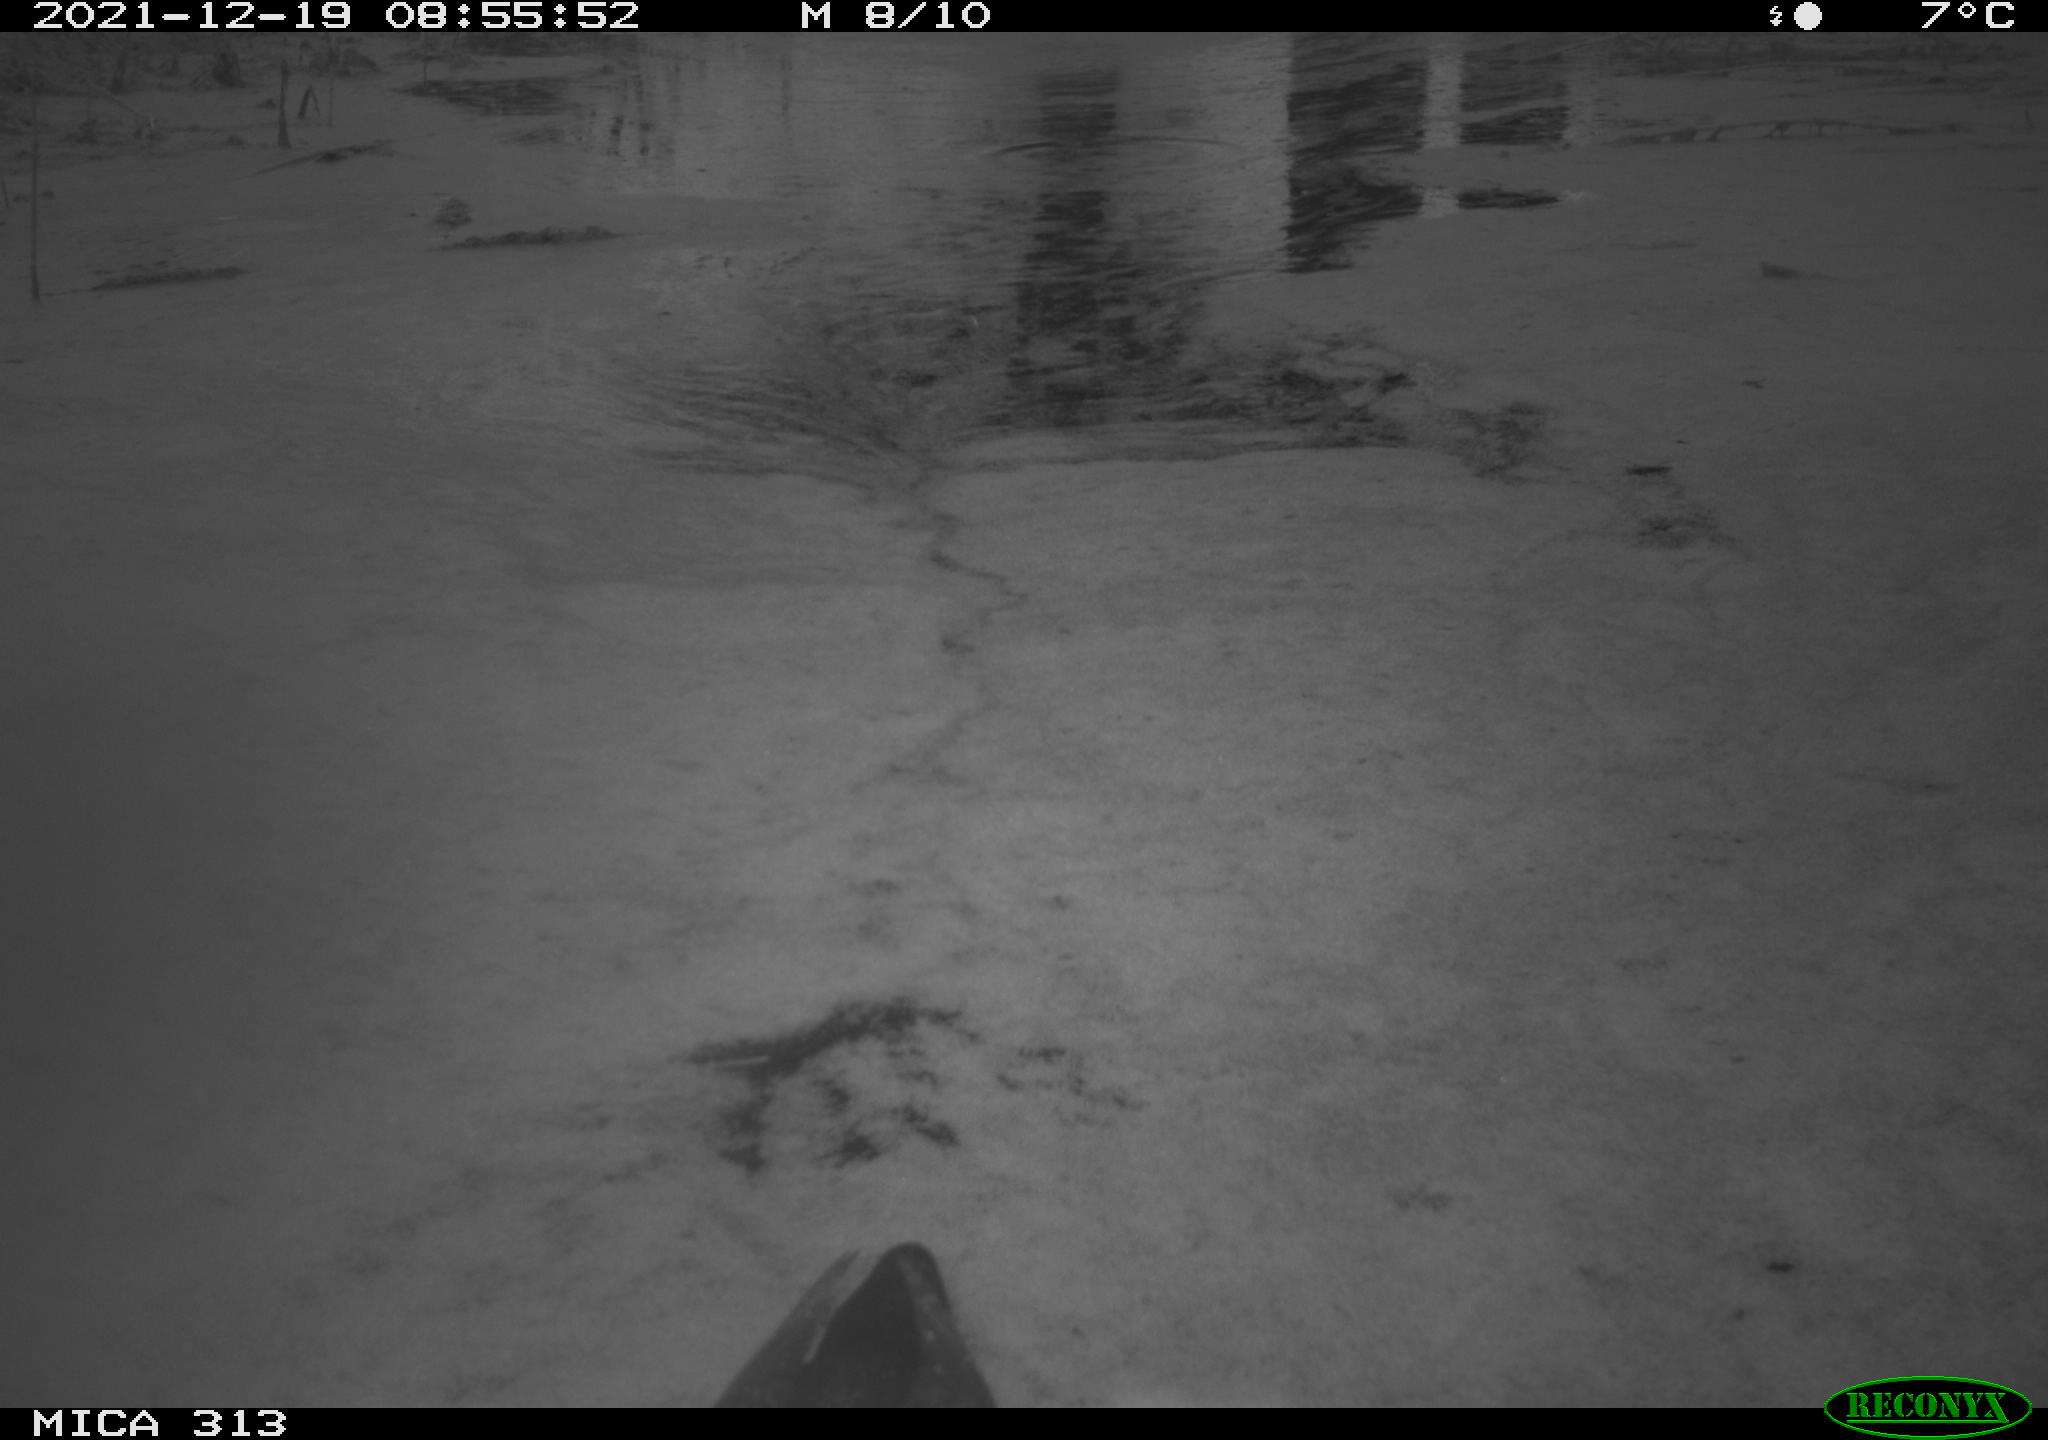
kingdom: Animalia
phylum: Chordata
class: Aves
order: Gruiformes
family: Rallidae
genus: Gallinula
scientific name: Gallinula chloropus
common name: Common moorhen
